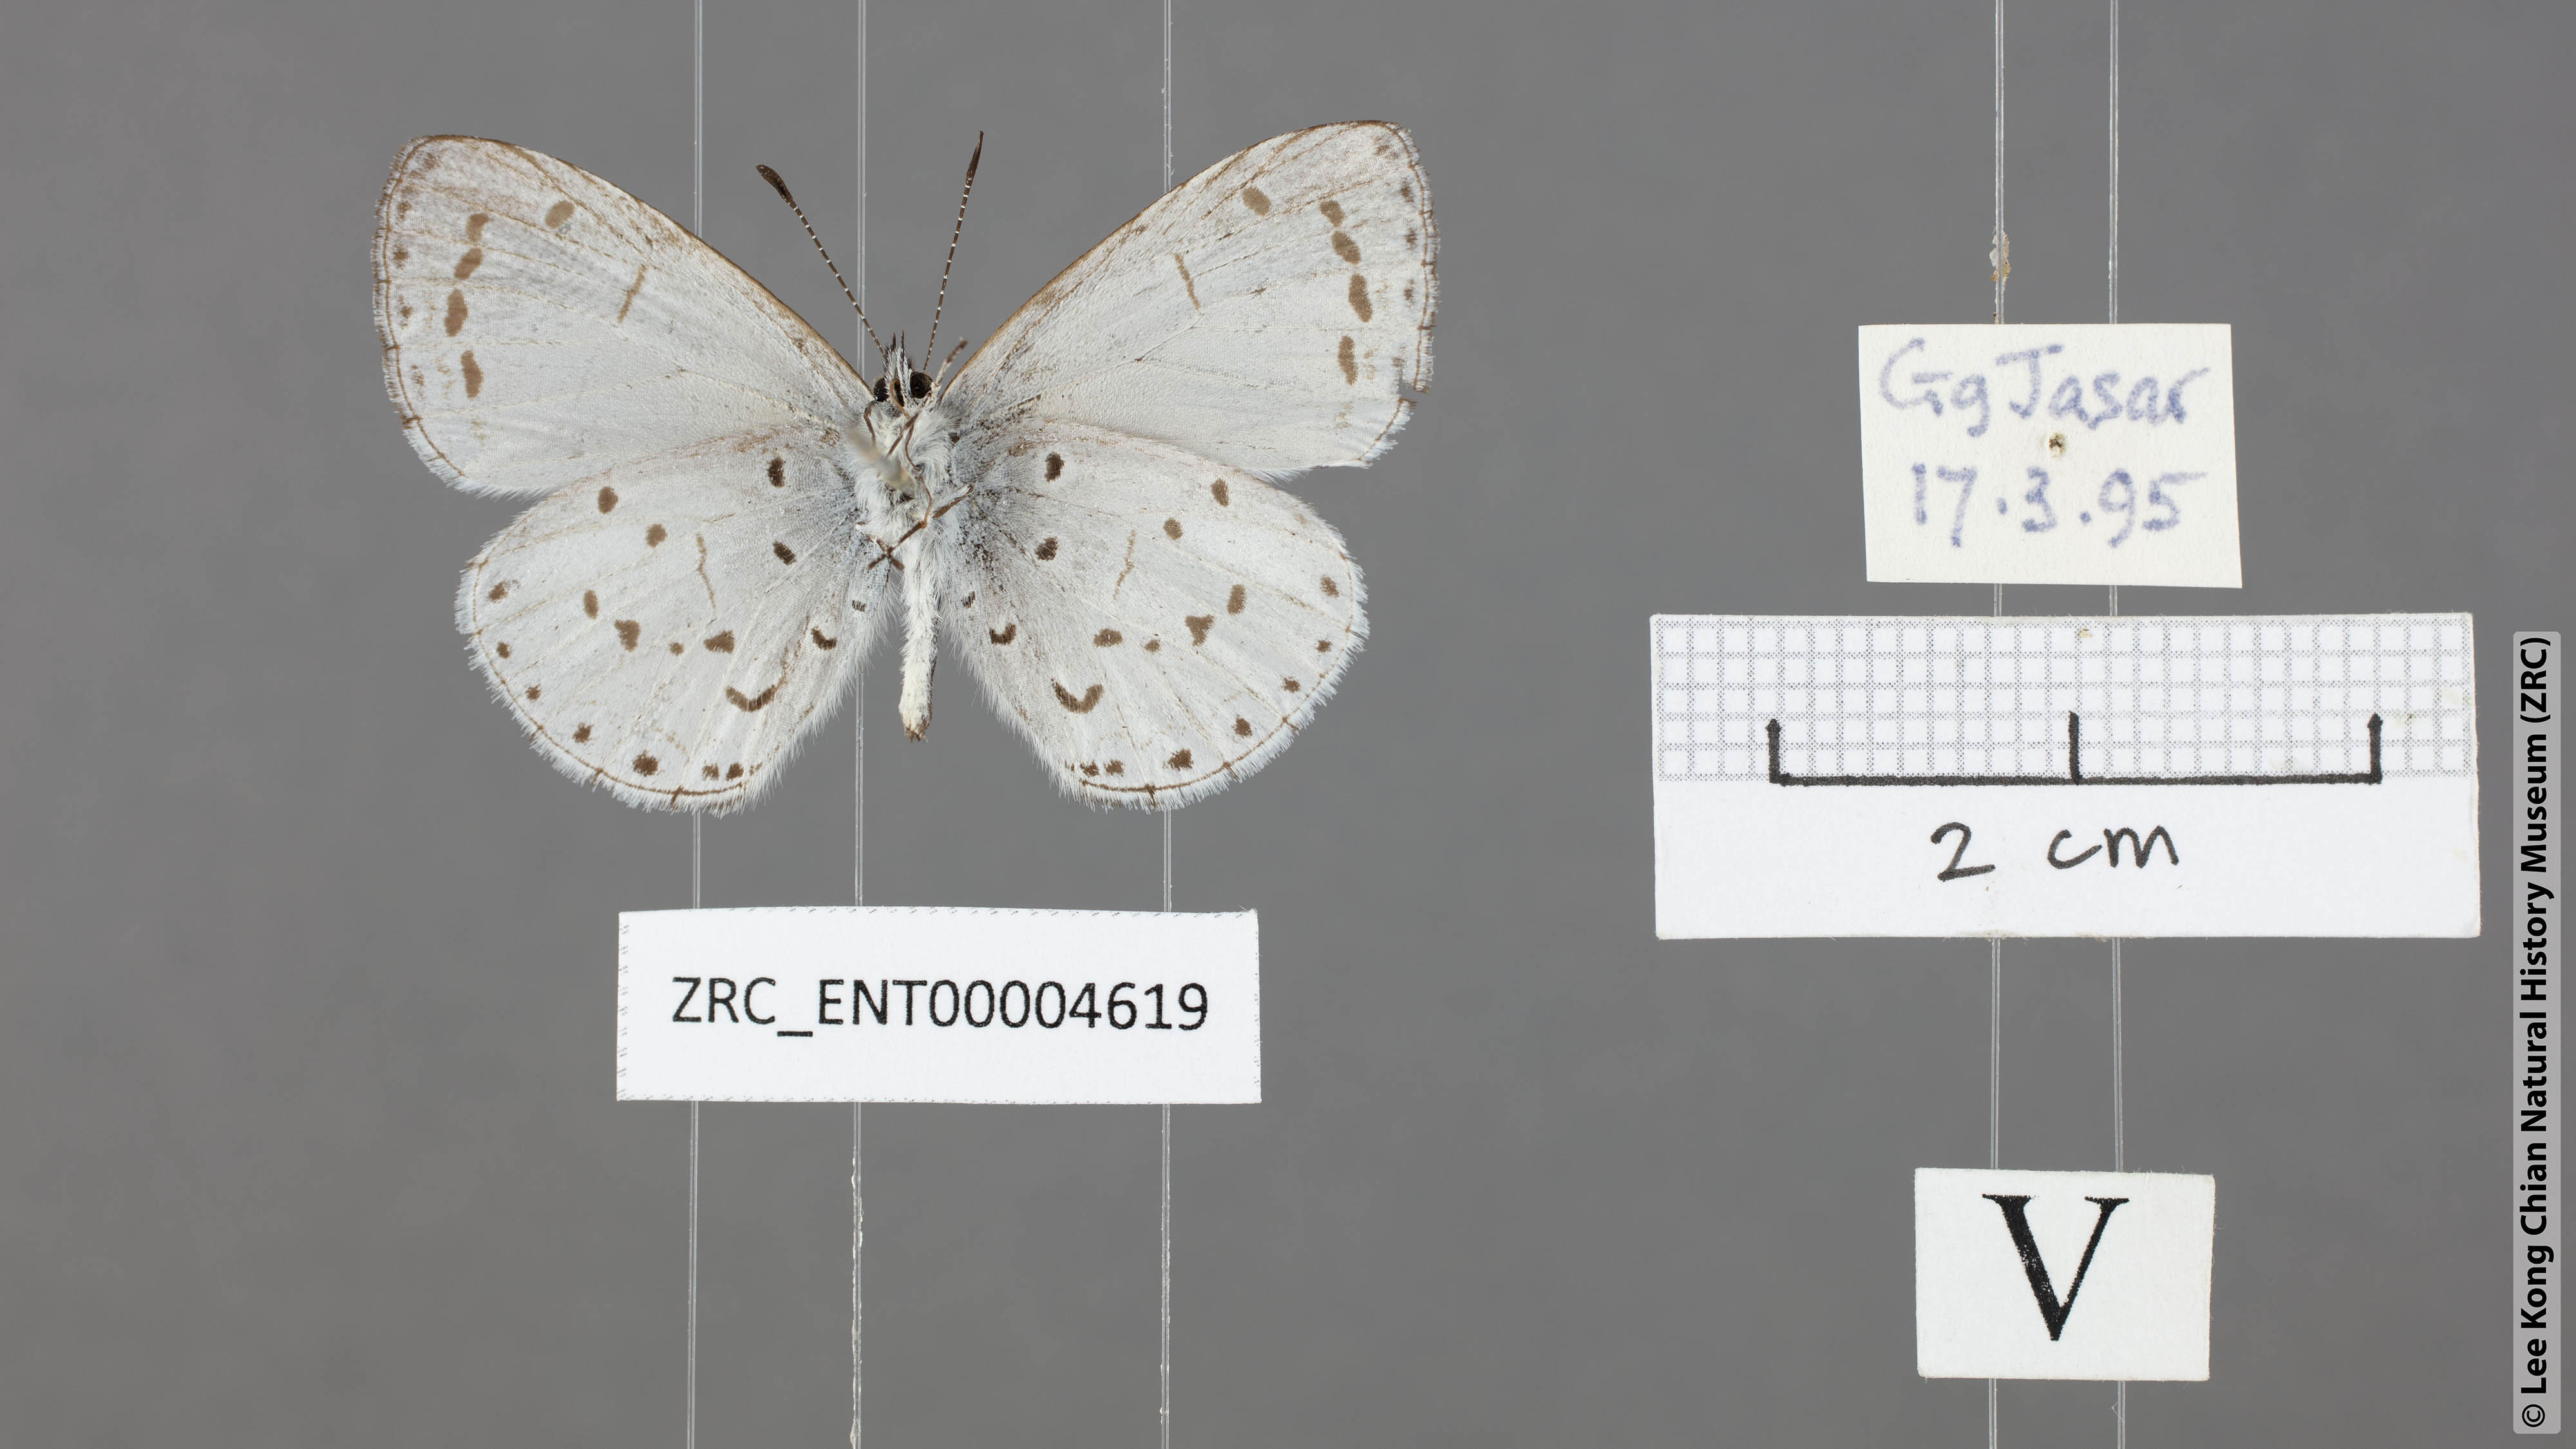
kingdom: Animalia
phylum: Arthropoda
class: Insecta
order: Lepidoptera
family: Lycaenidae
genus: Udara
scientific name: Udara
